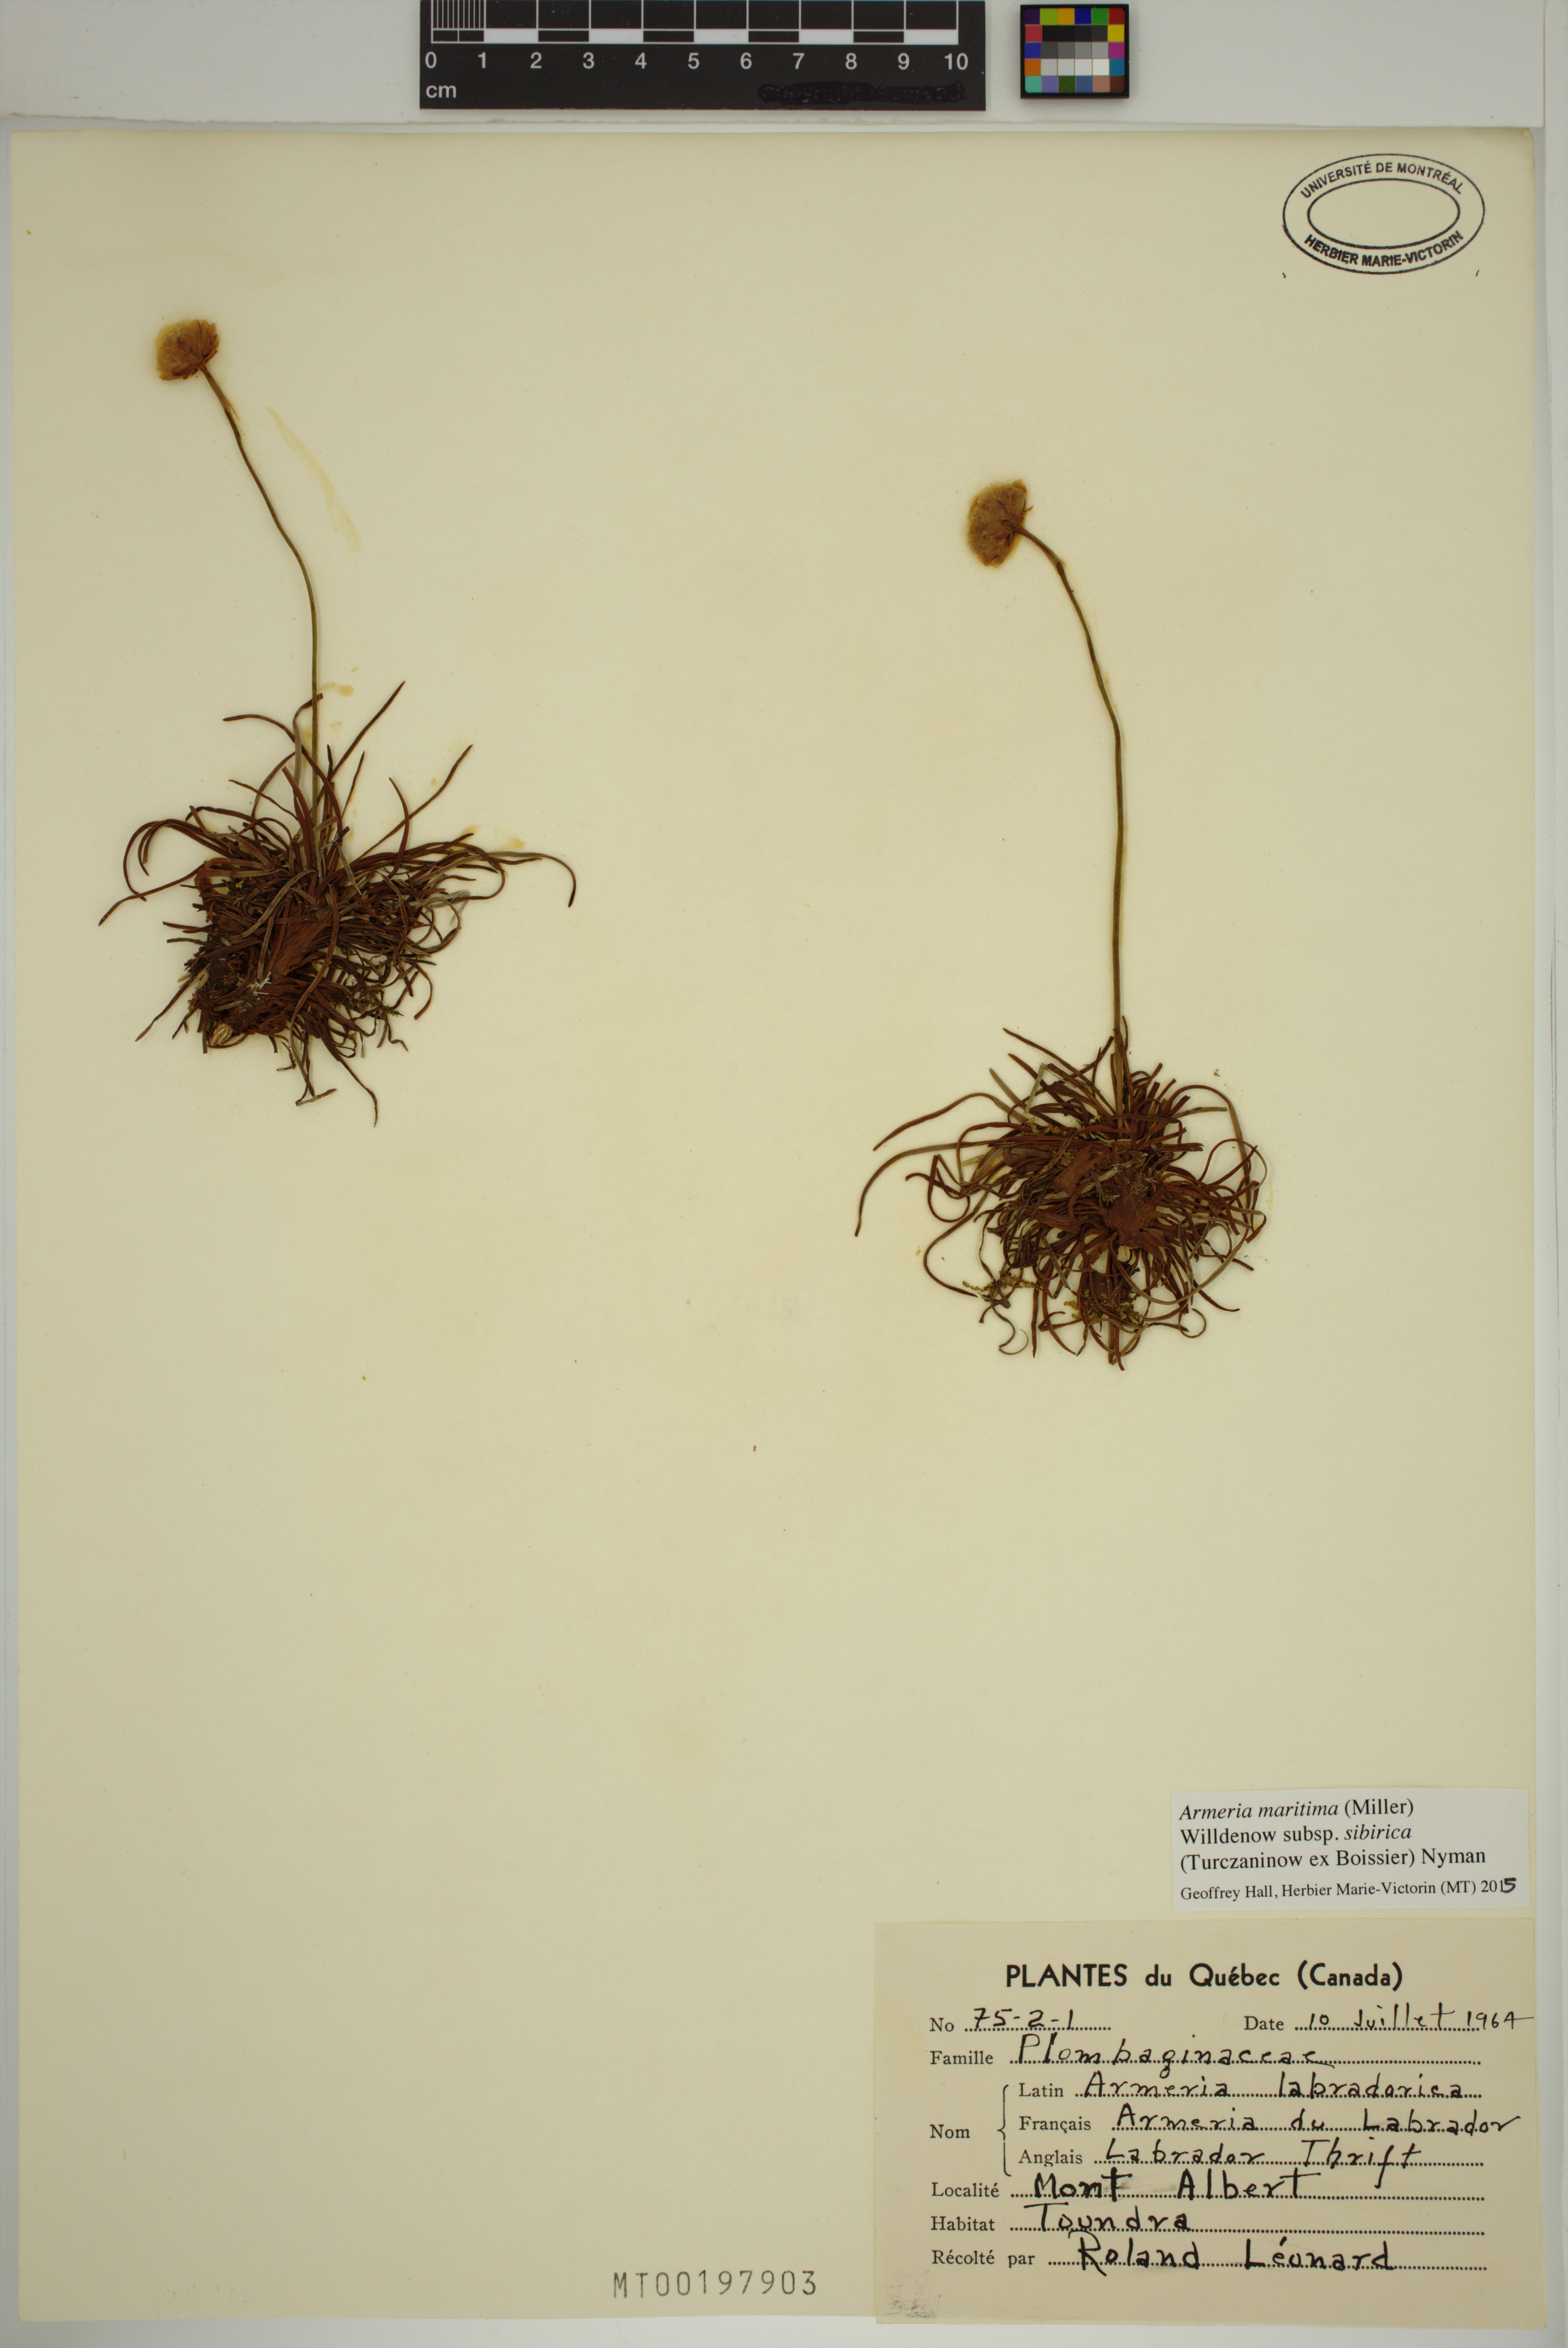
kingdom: Plantae
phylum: Tracheophyta
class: Magnoliopsida
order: Caryophyllales
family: Plumbaginaceae
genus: Armeria
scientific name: Armeria maritima
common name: Thrift
